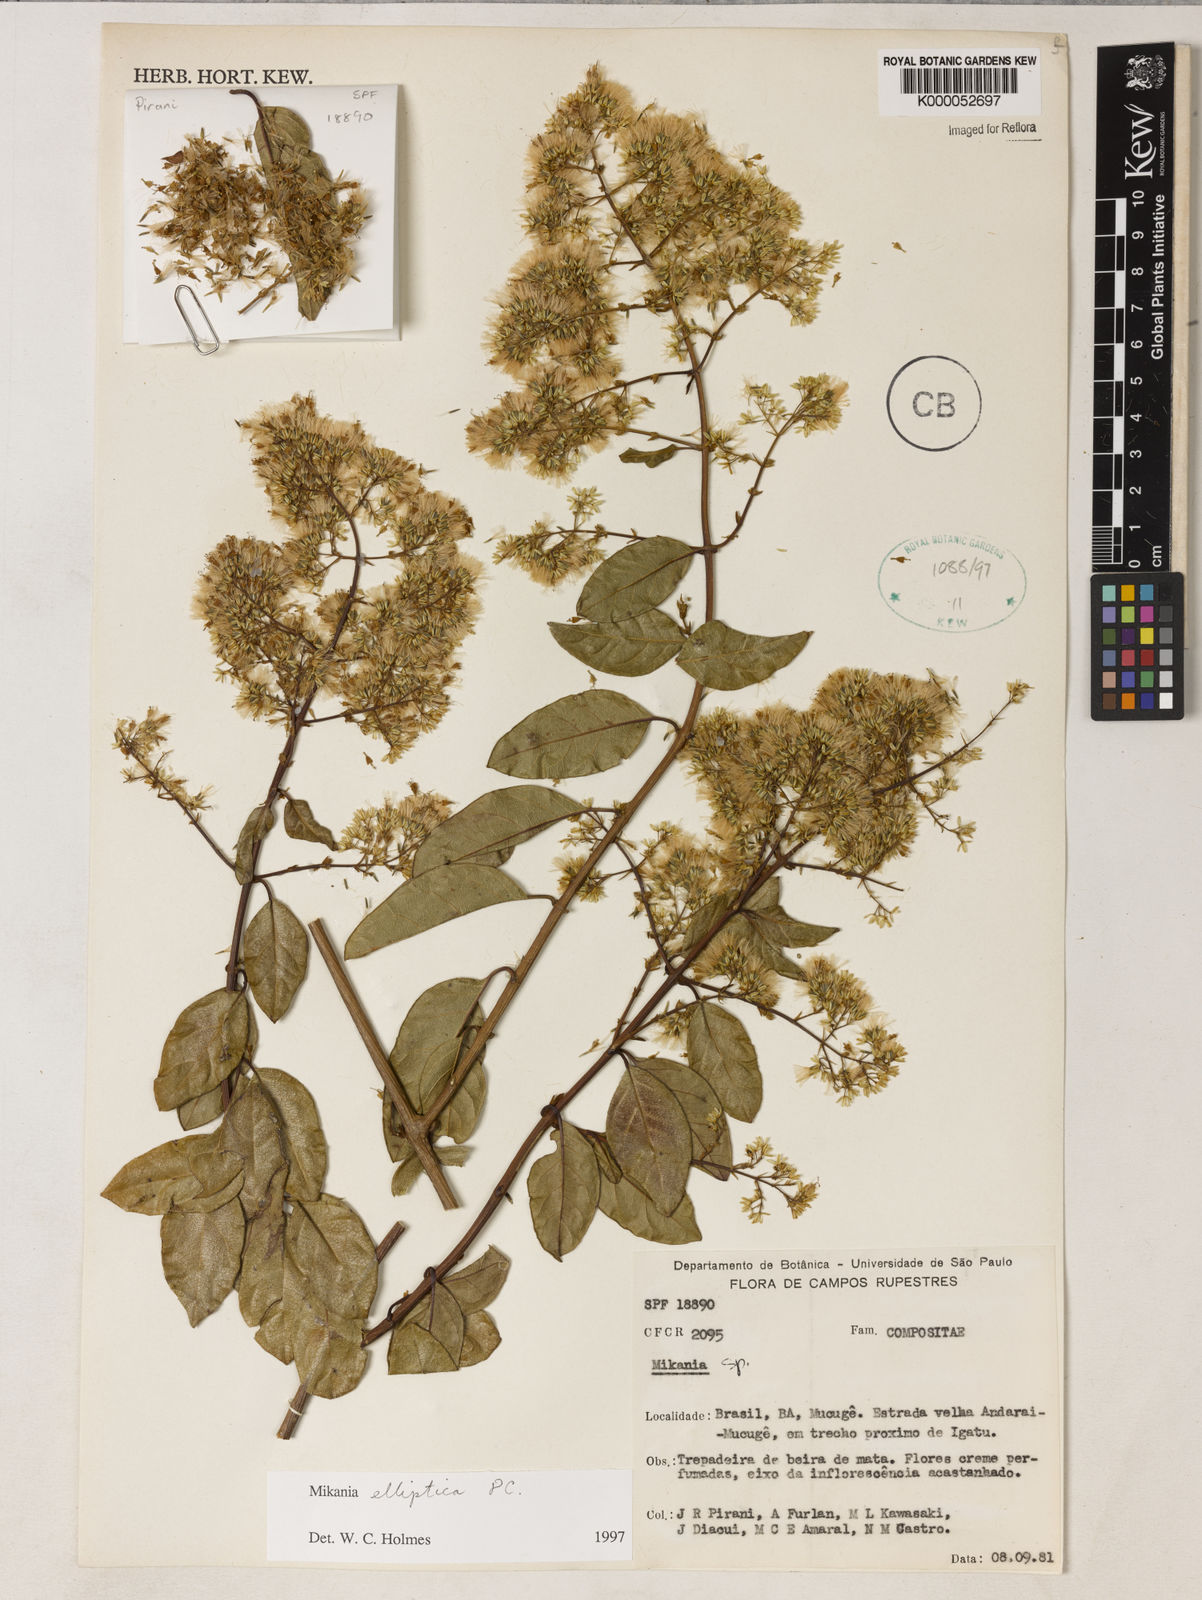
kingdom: Plantae
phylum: Tracheophyta
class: Magnoliopsida
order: Asterales
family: Asteraceae
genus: Mikania
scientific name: Mikania elliptica
